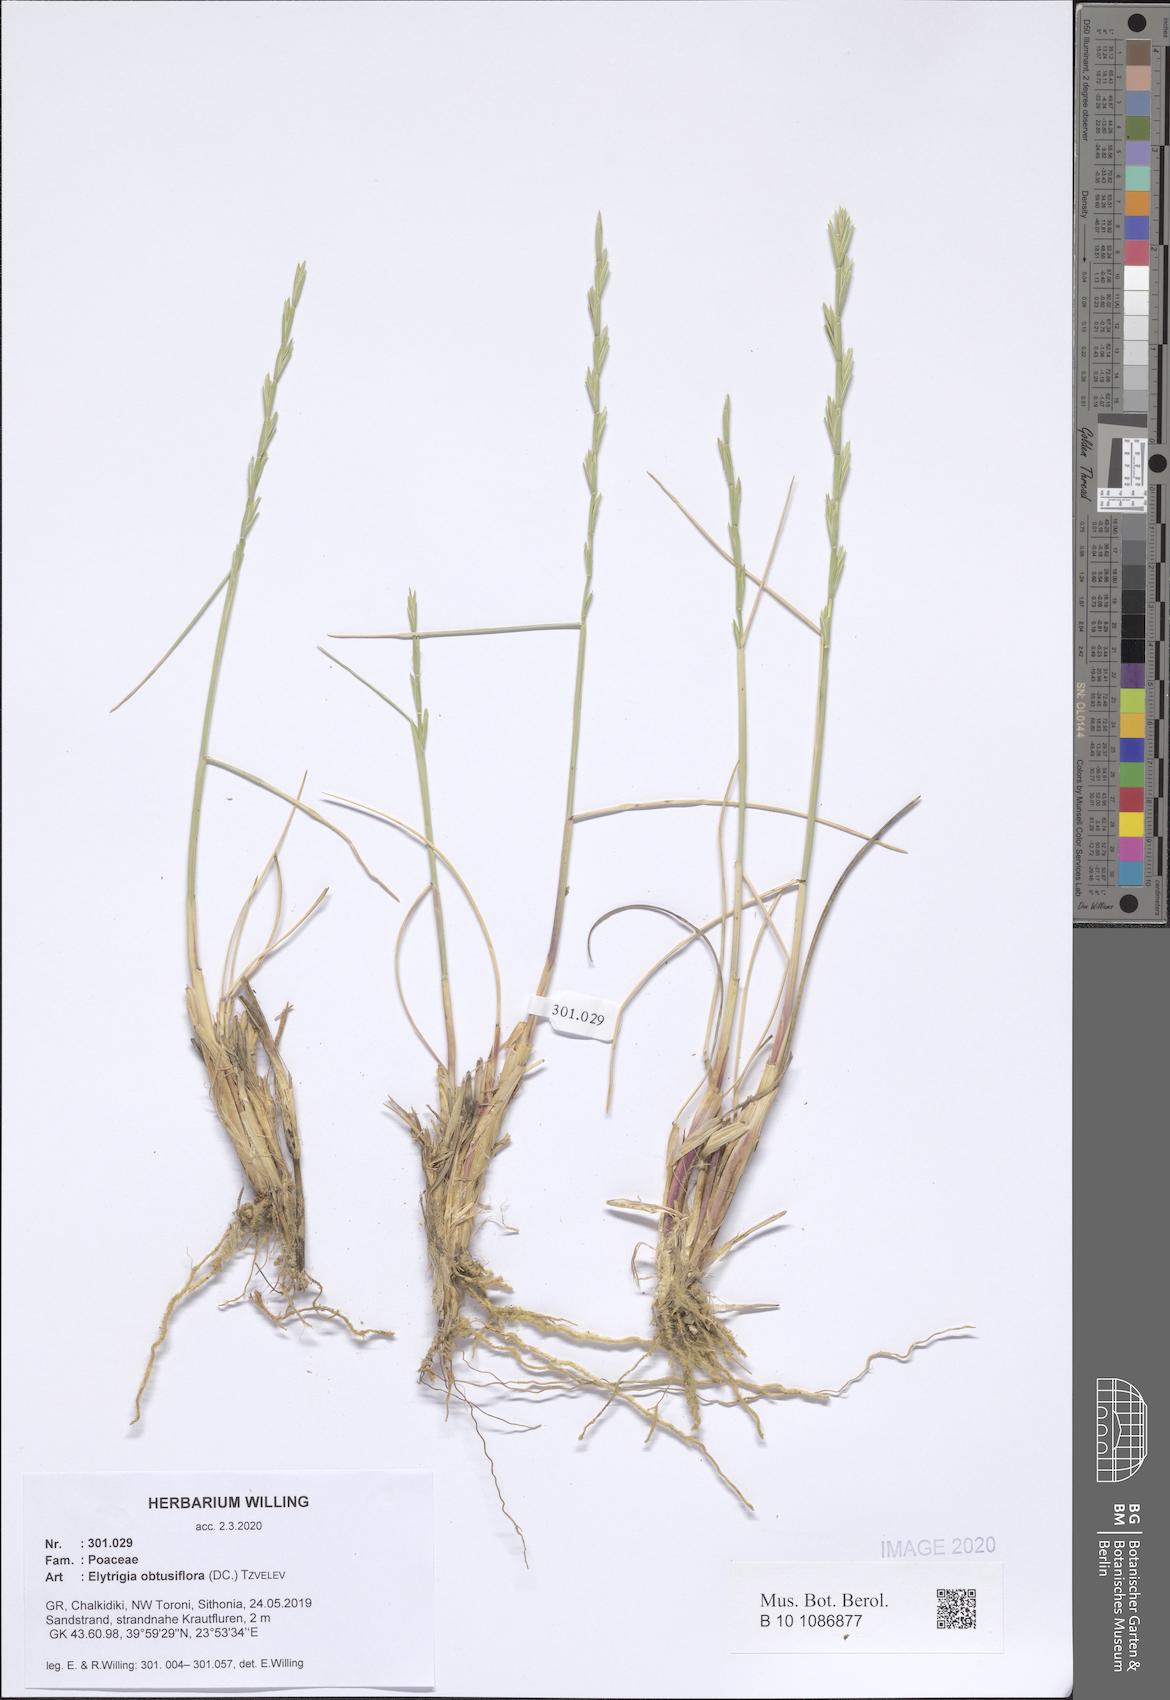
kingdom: Plantae
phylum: Tracheophyta
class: Liliopsida
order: Poales
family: Poaceae
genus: Thinopyrum
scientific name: Thinopyrum obtusiflorum
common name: Eurasian quackgrass
